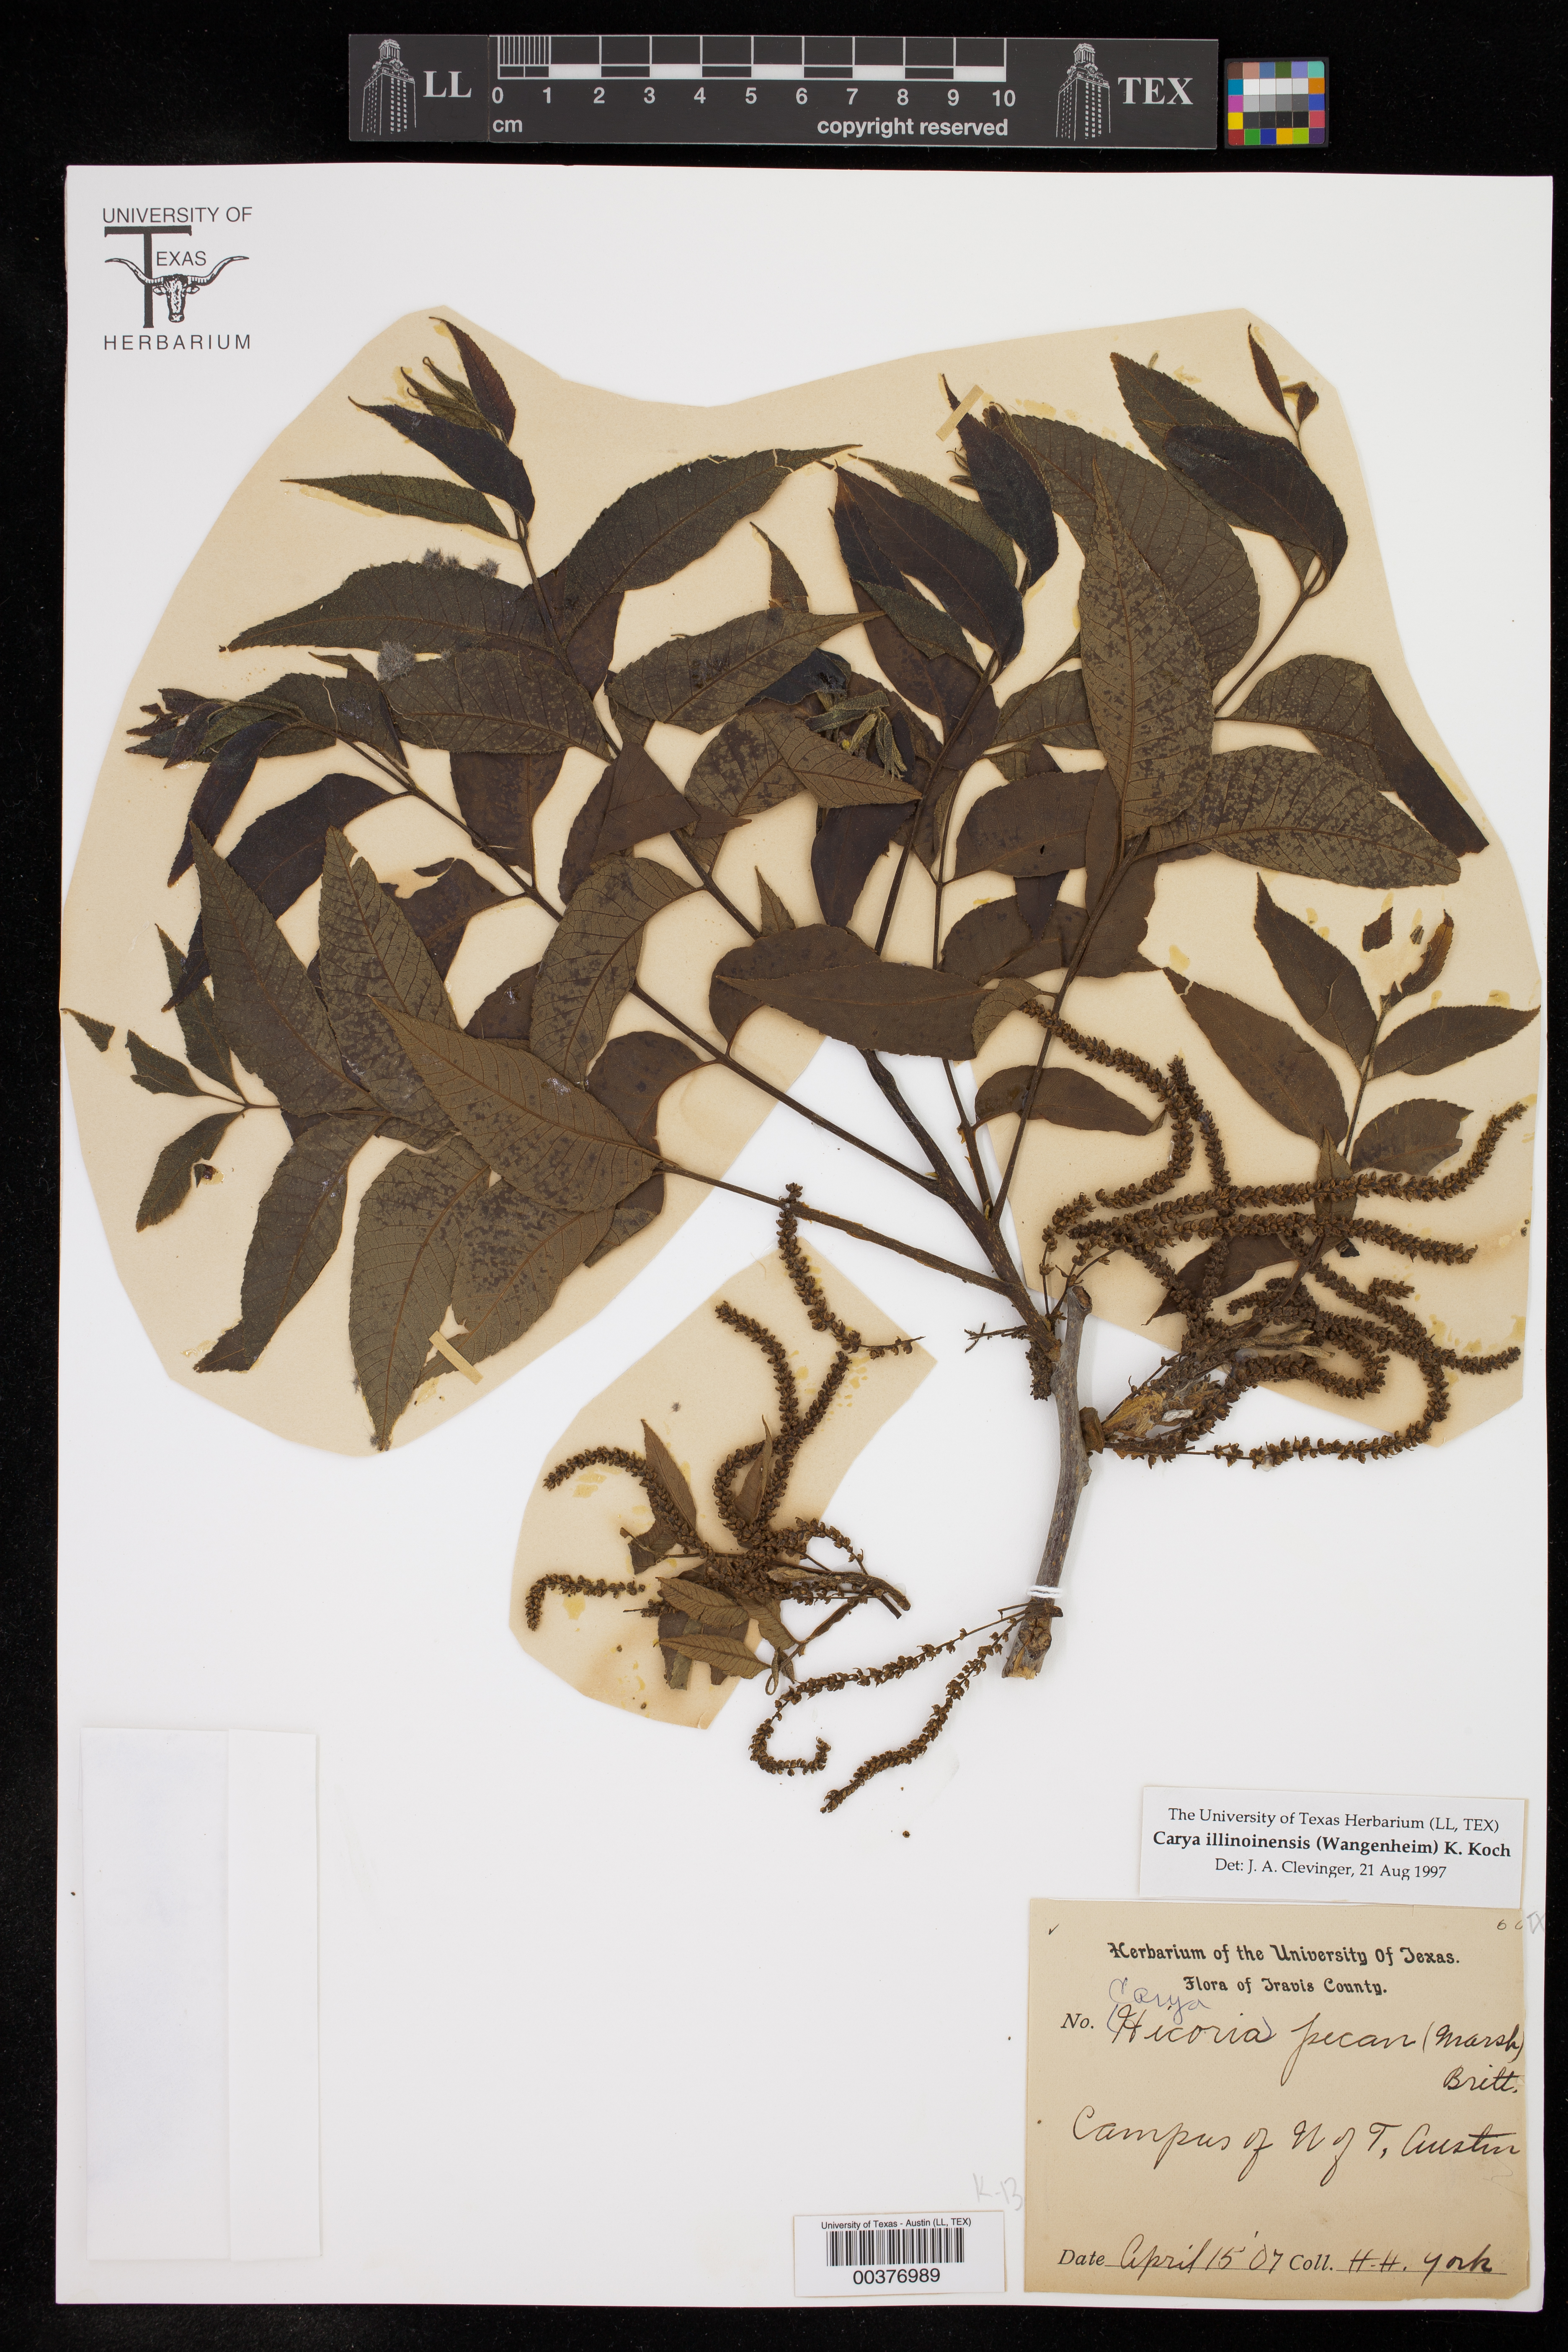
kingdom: Plantae
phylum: Tracheophyta
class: Magnoliopsida
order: Fagales
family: Juglandaceae
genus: Carya
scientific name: Carya illinoinensis
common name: Pecan
